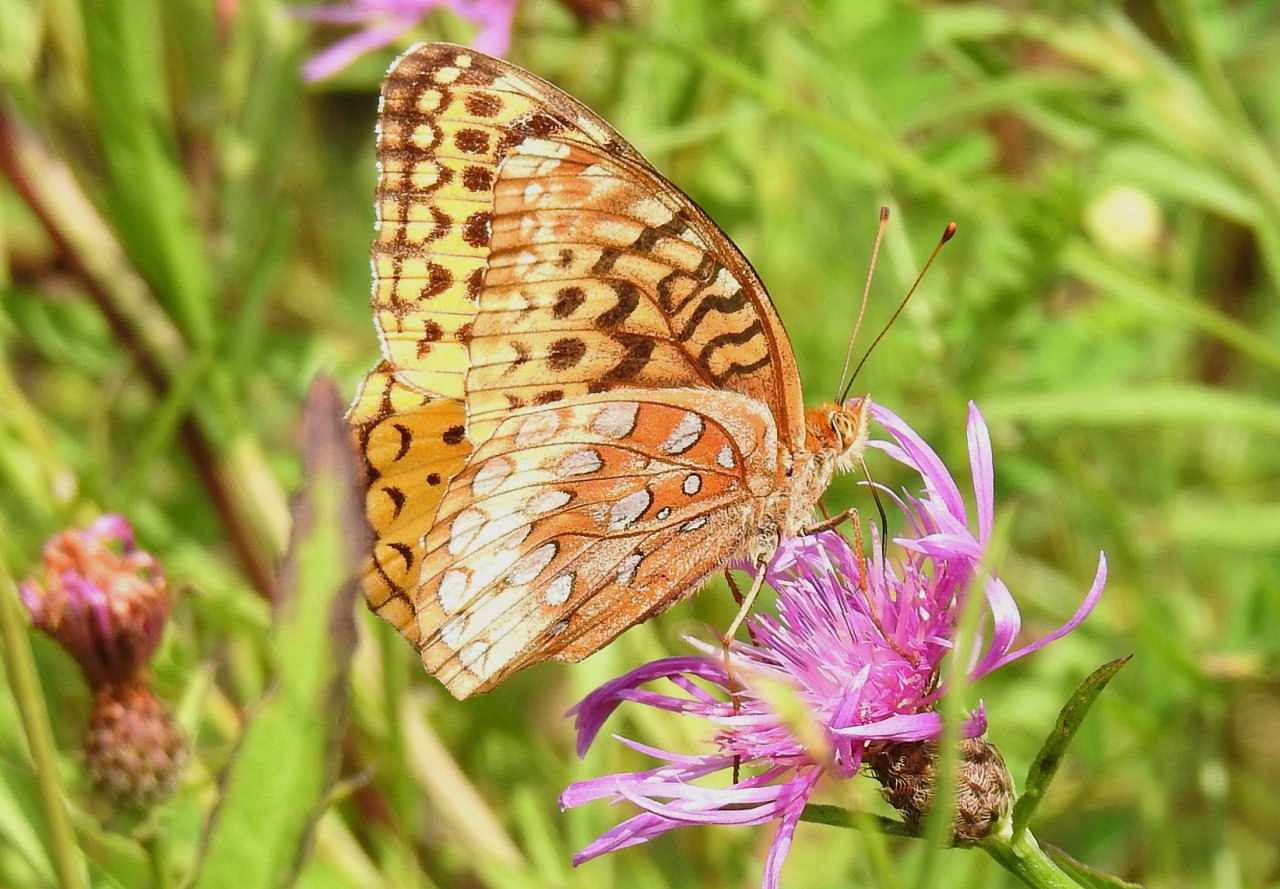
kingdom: Animalia
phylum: Arthropoda
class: Insecta
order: Lepidoptera
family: Nymphalidae
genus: Speyeria
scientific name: Speyeria cybele
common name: Great Spangled Fritillary
